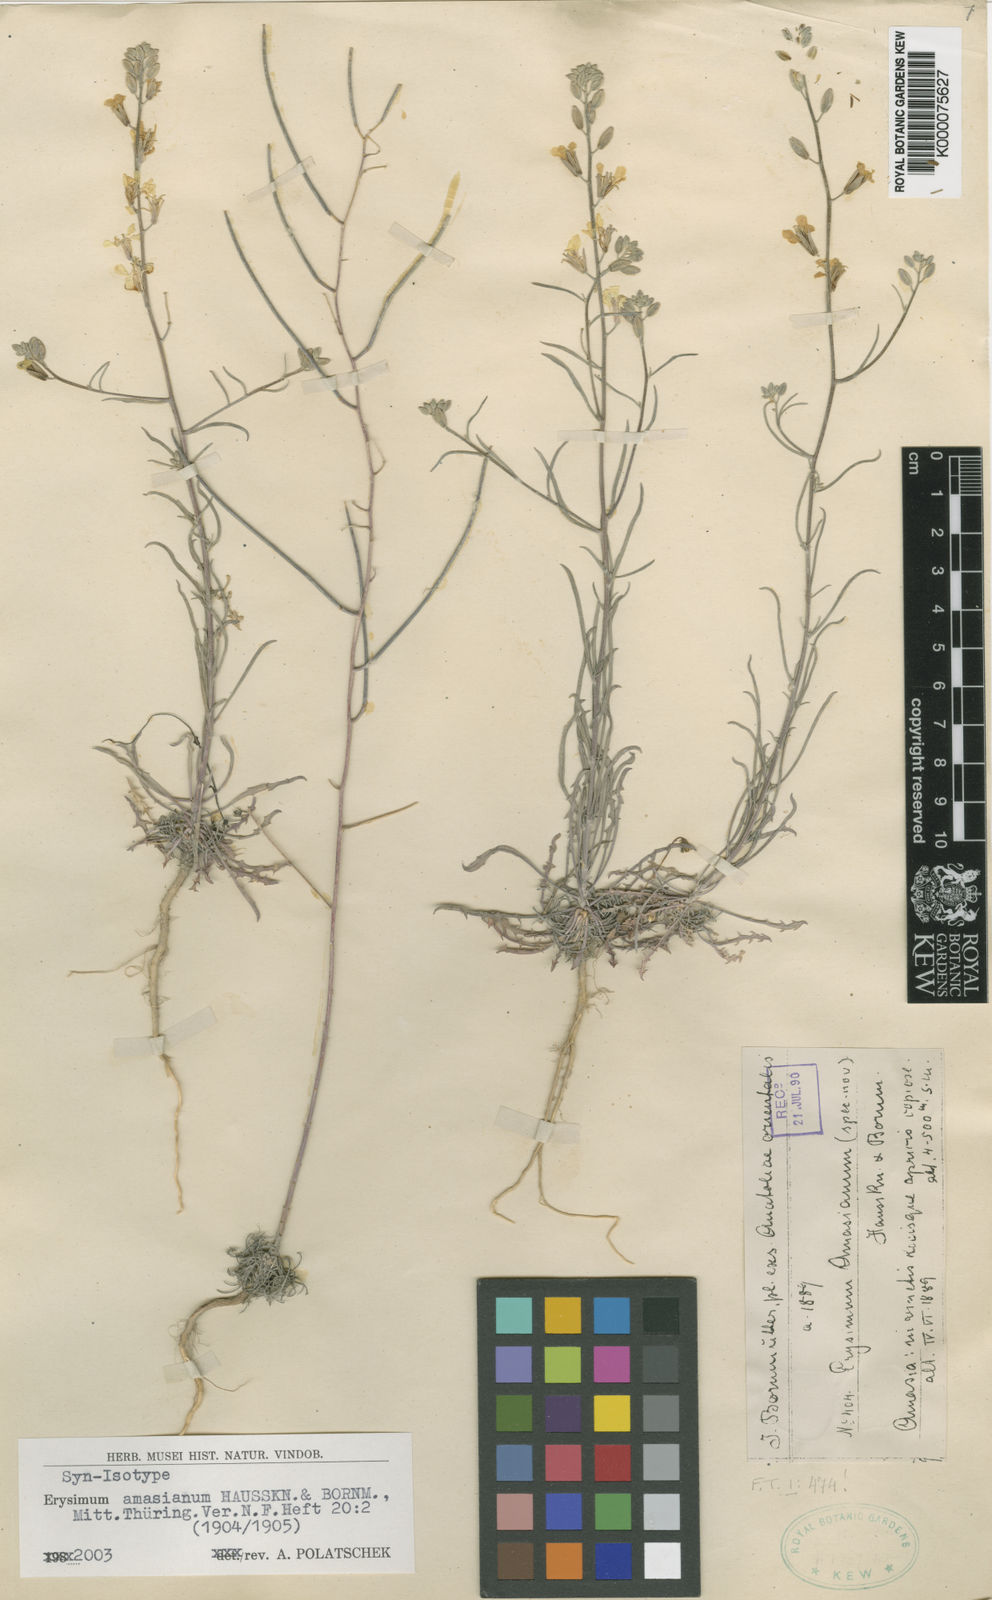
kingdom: Plantae
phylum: Tracheophyta
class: Magnoliopsida
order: Brassicales
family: Brassicaceae
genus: Erysimum
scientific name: Erysimum amasianum
